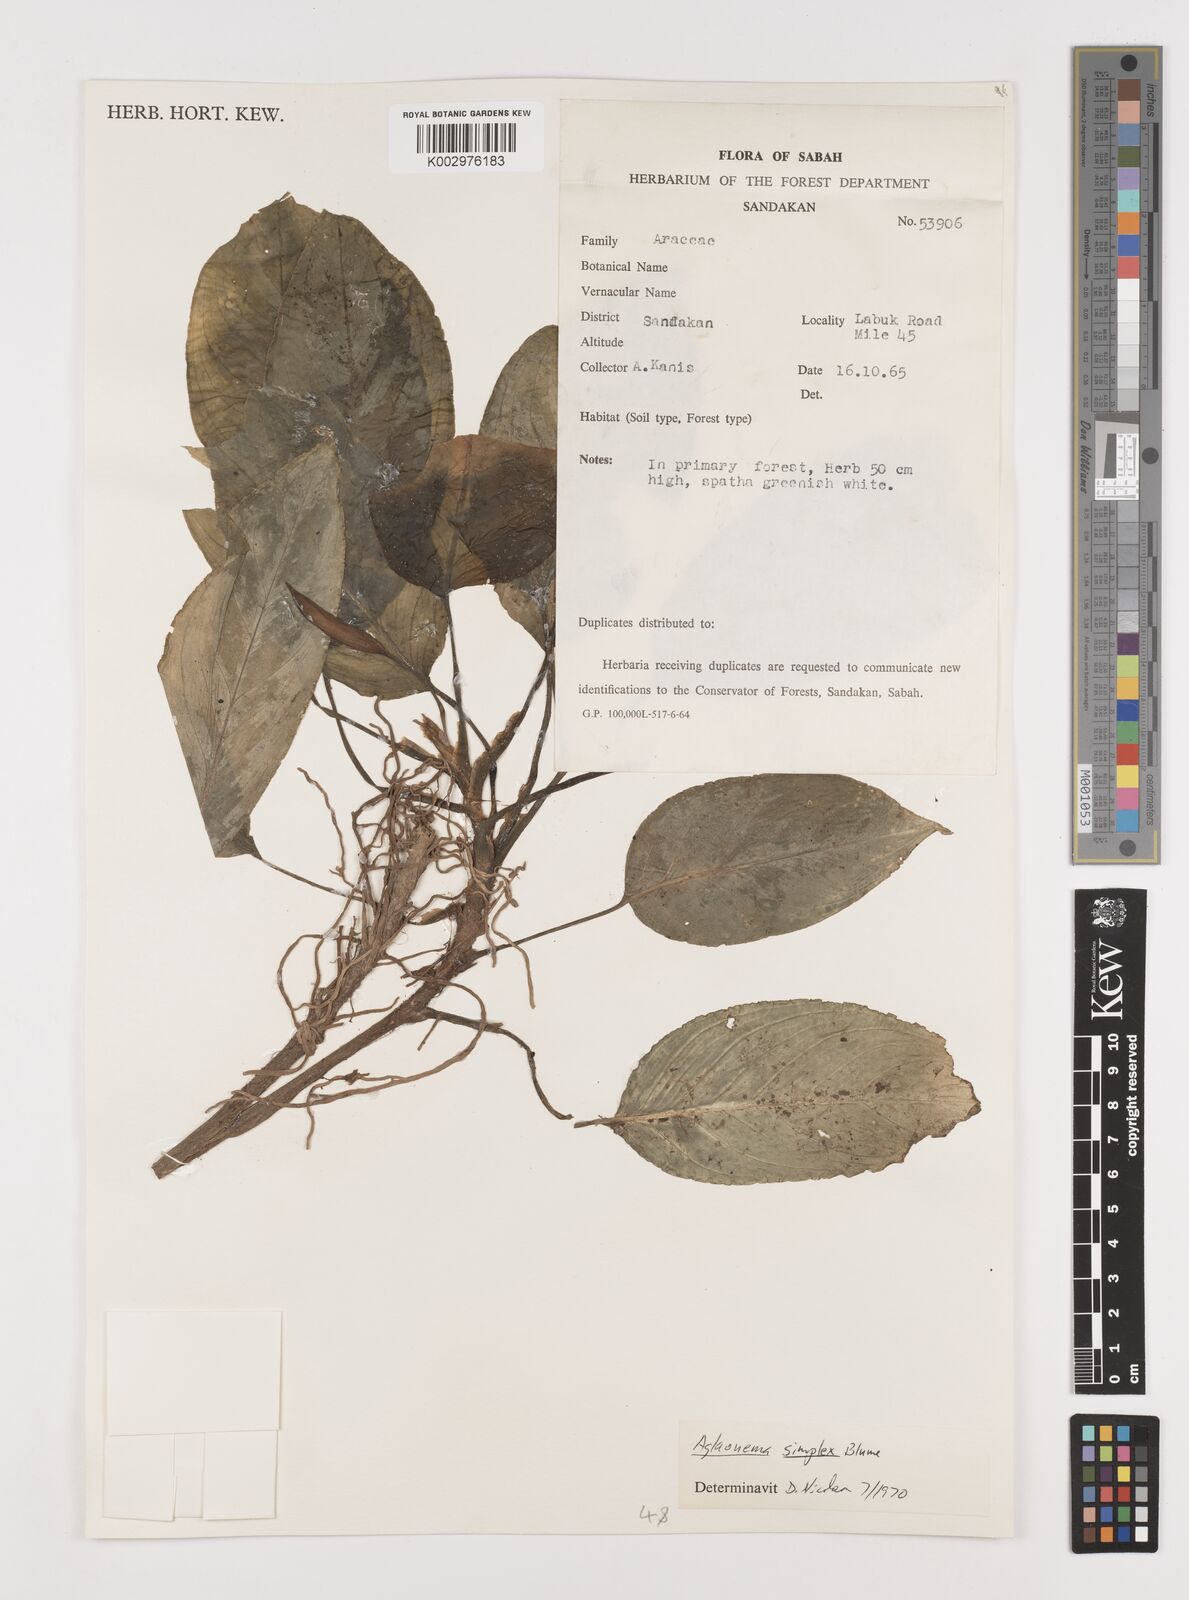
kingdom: Plantae
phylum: Tracheophyta
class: Liliopsida
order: Alismatales
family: Araceae
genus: Aglaonema
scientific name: Aglaonema simplex
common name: Malayan-sword
